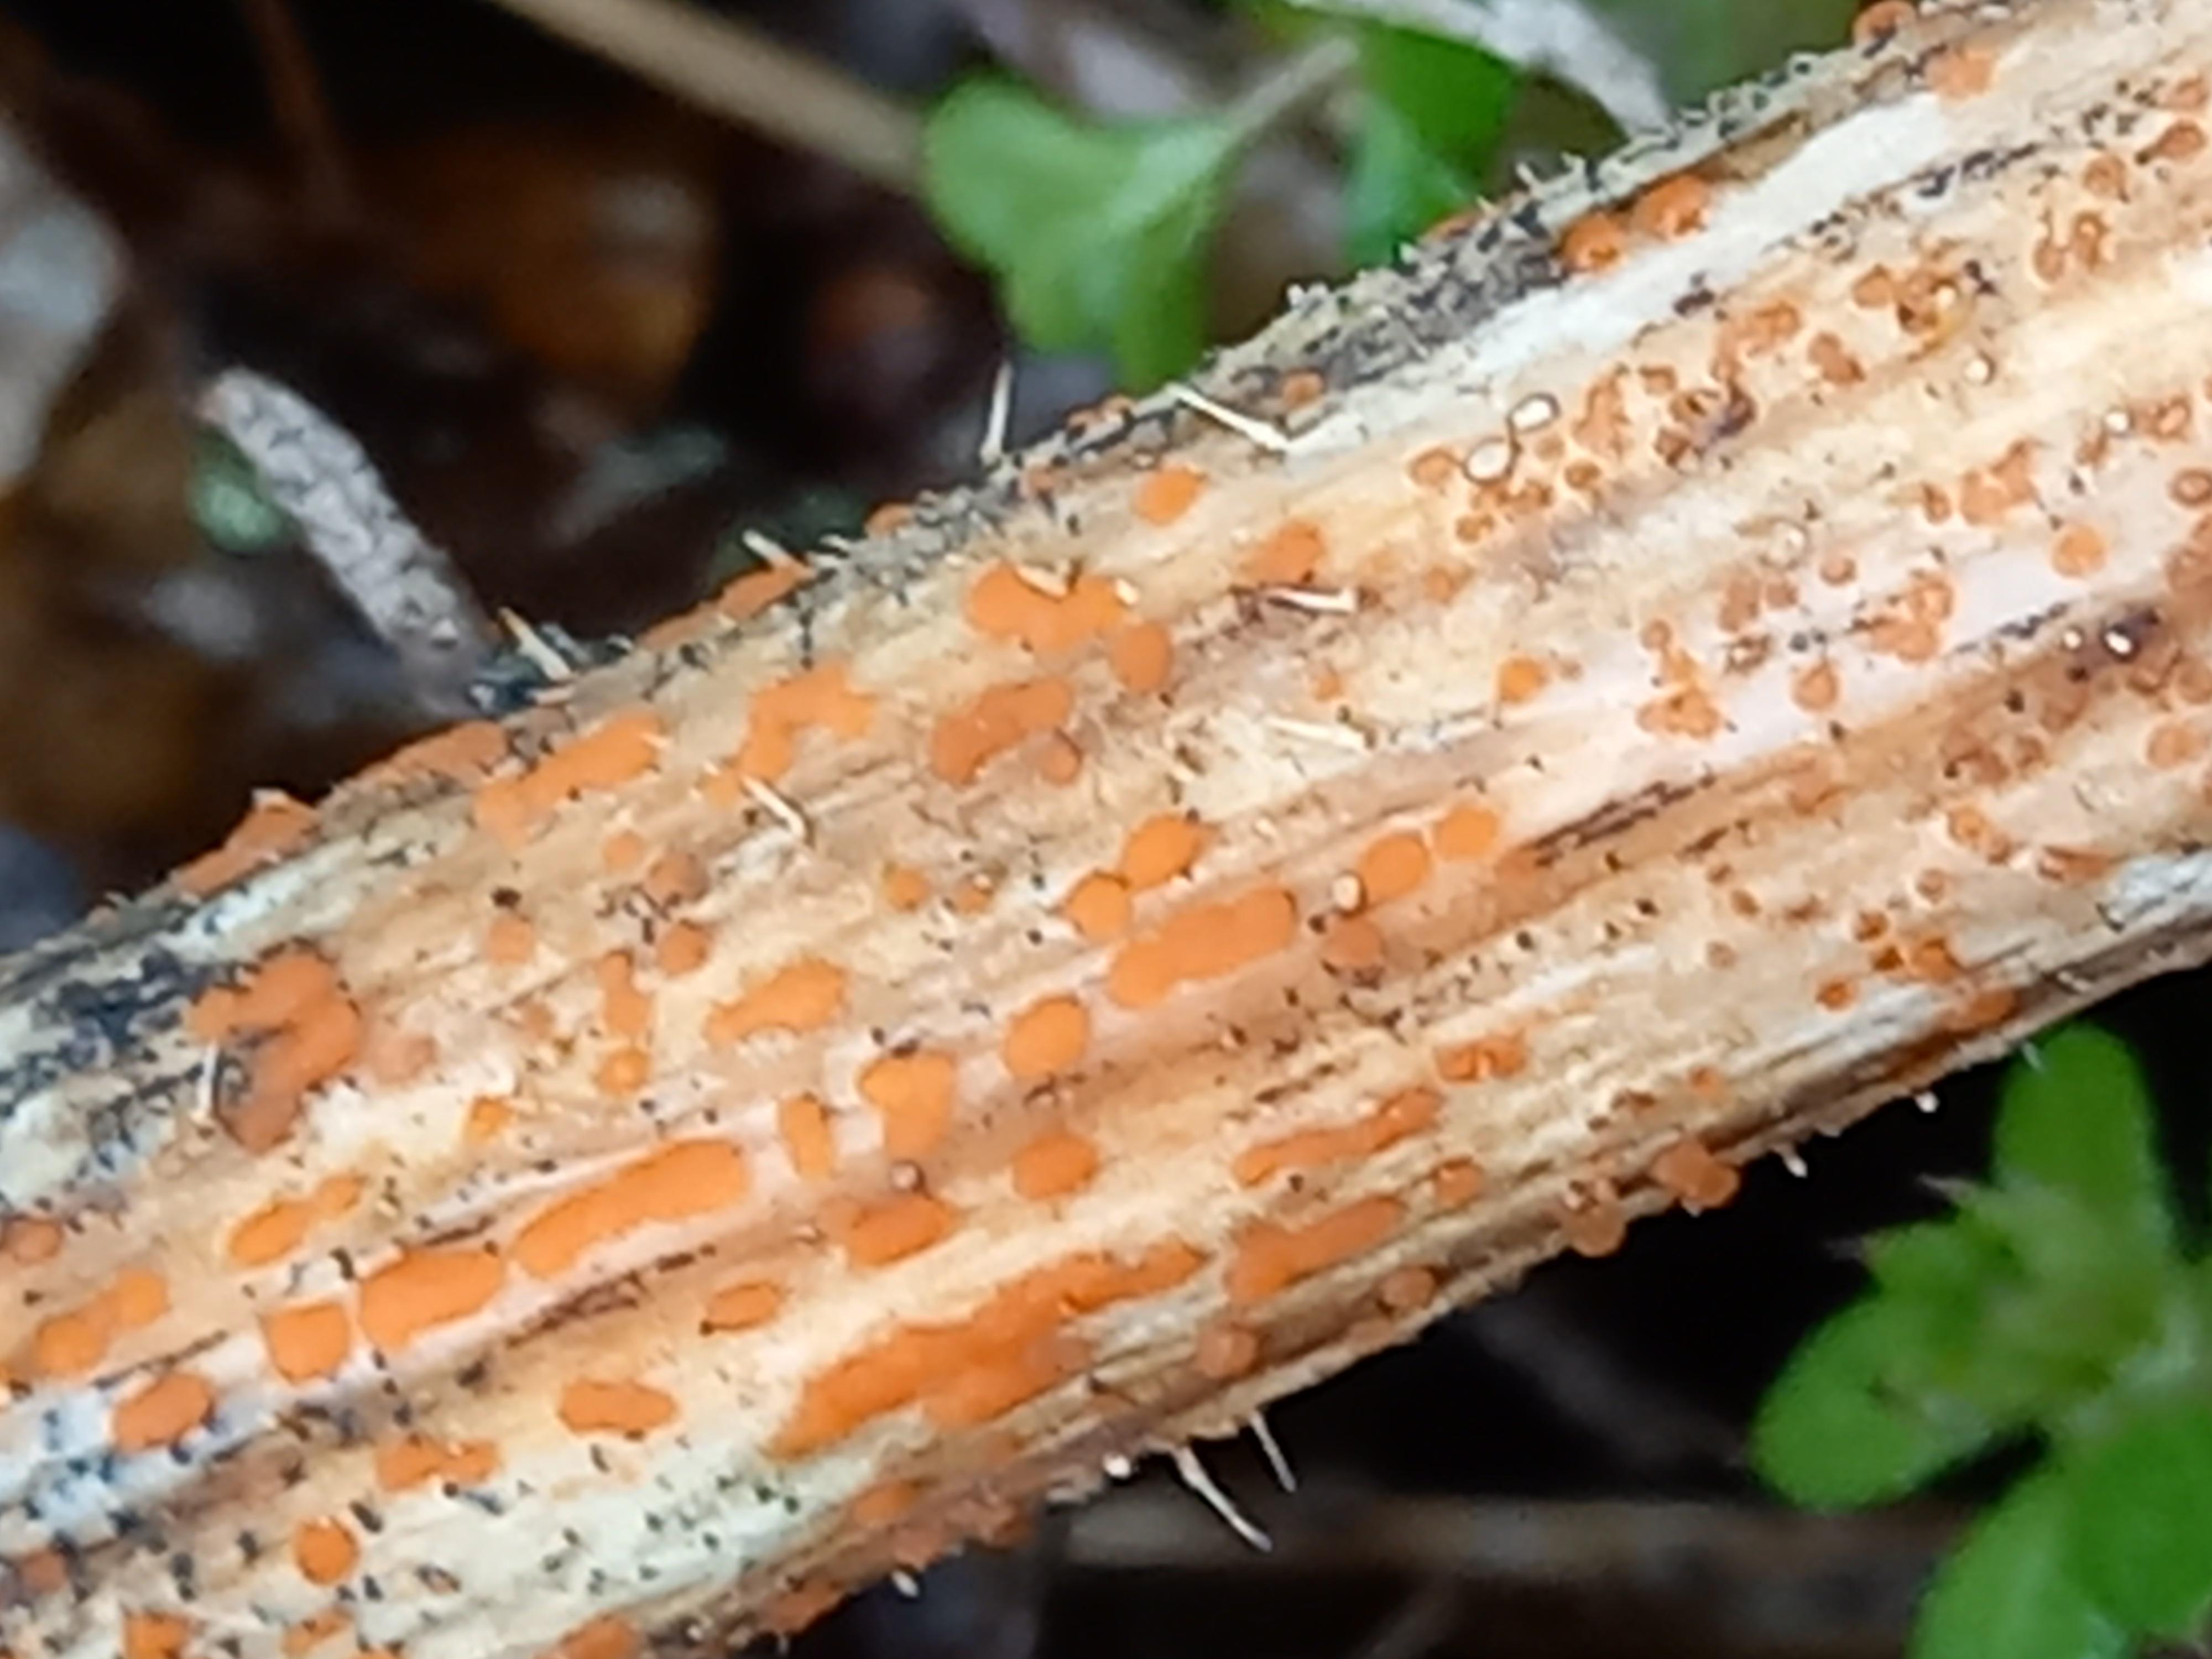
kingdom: Fungi
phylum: Ascomycota
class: Leotiomycetes
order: Helotiales
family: Calloriaceae
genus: Calloria
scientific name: Calloria urticae
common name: nælde-orangeskive
